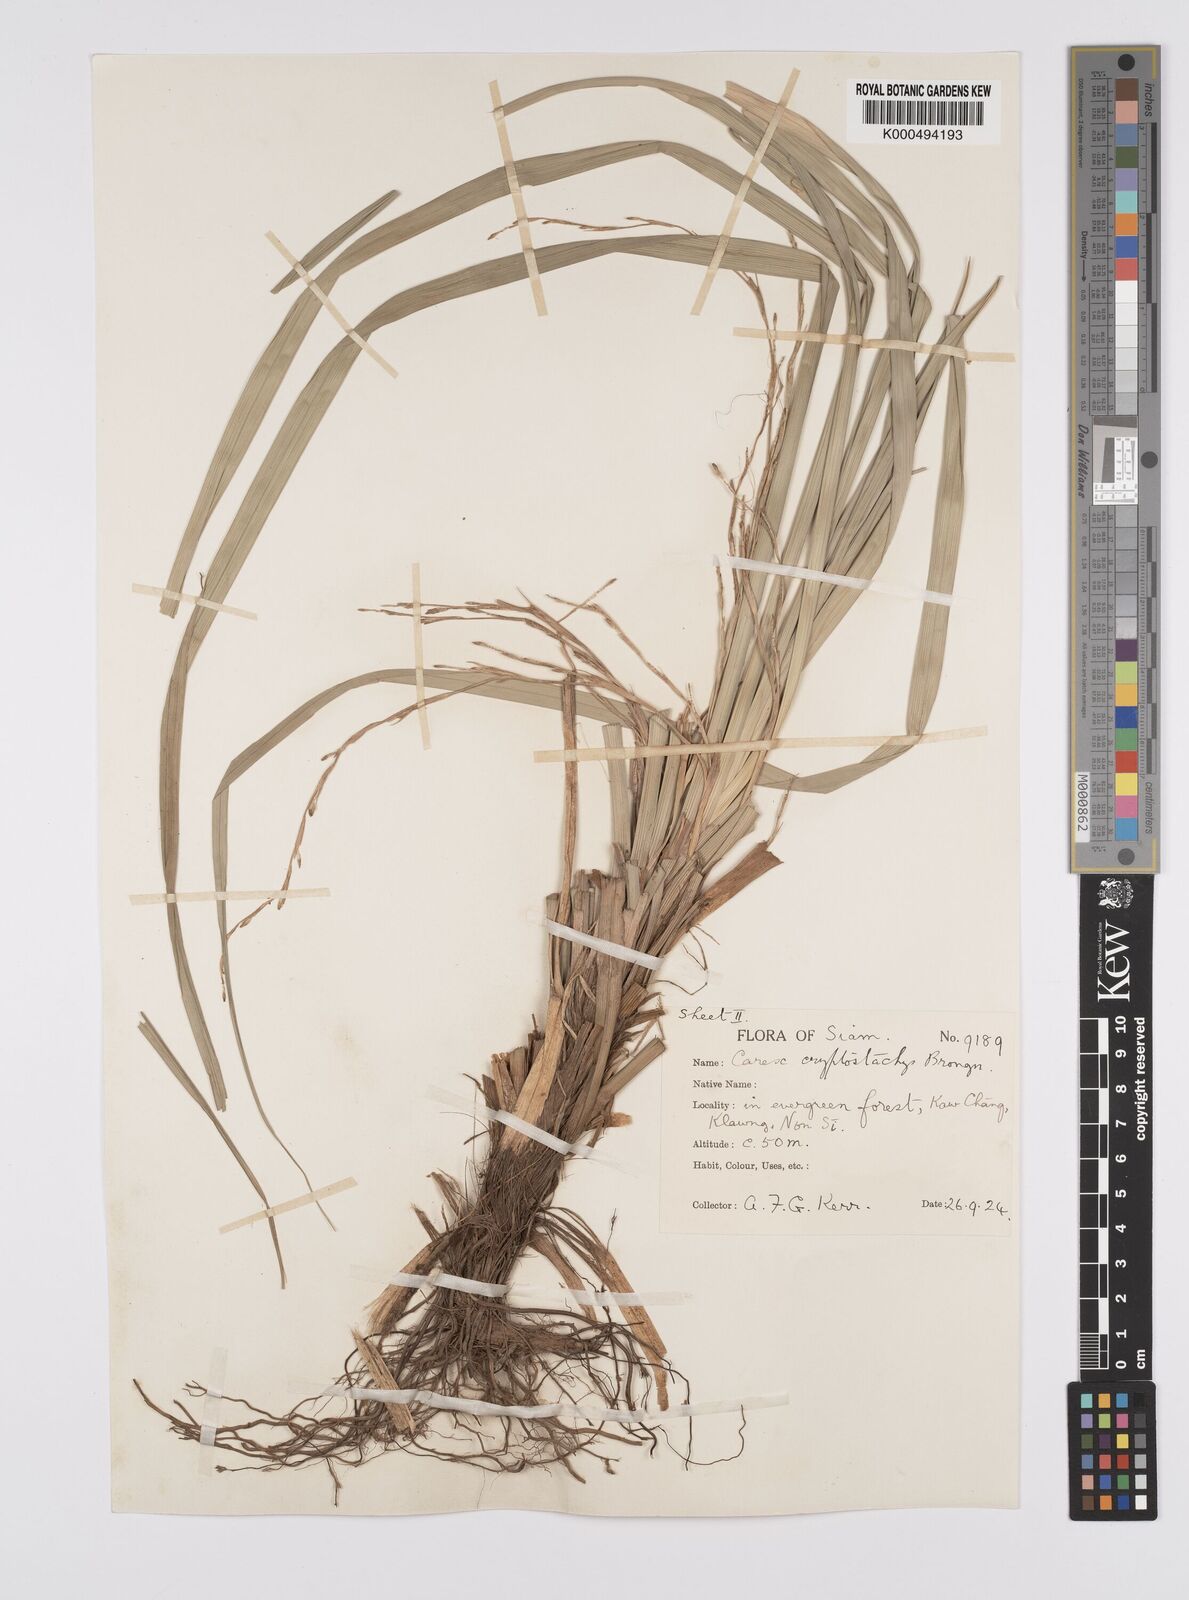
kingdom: Plantae
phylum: Tracheophyta
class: Liliopsida
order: Poales
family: Cyperaceae
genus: Carex
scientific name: Carex cryptostachys
